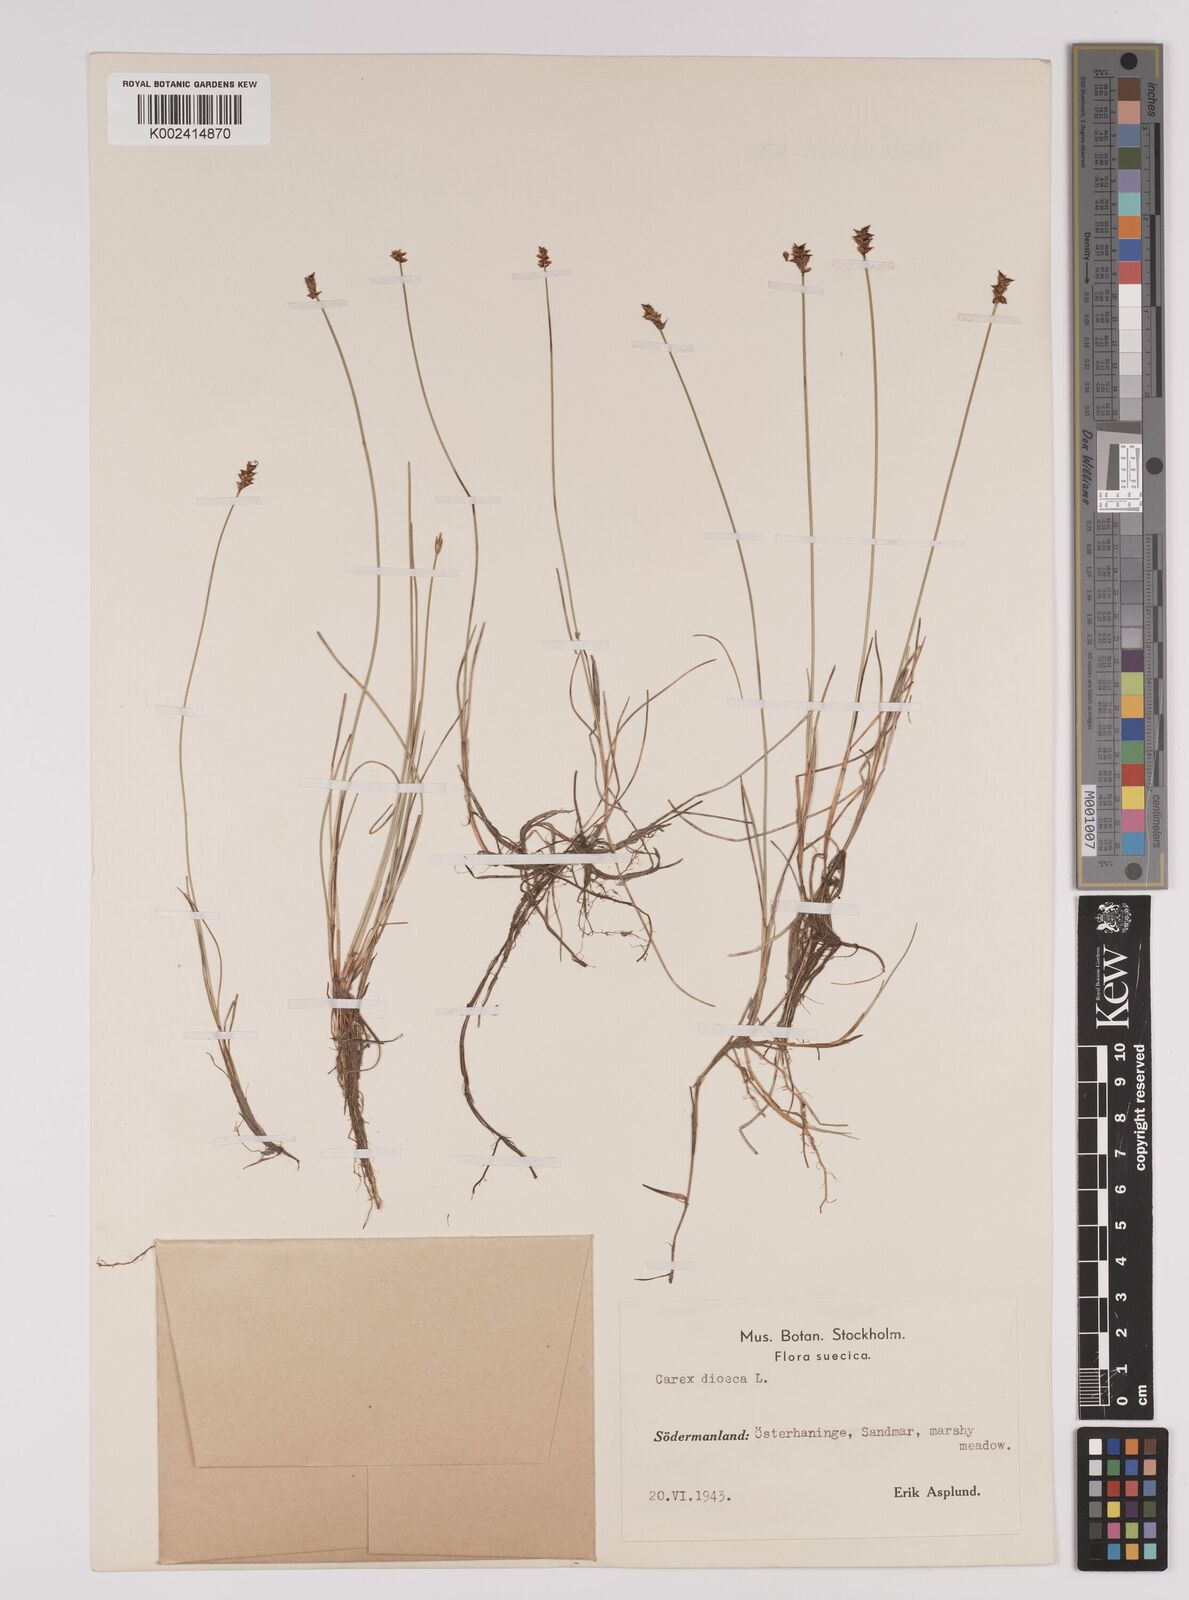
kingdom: Plantae
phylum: Tracheophyta
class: Liliopsida
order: Poales
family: Cyperaceae
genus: Carex
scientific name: Carex dioica
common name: Dioecious sedge
